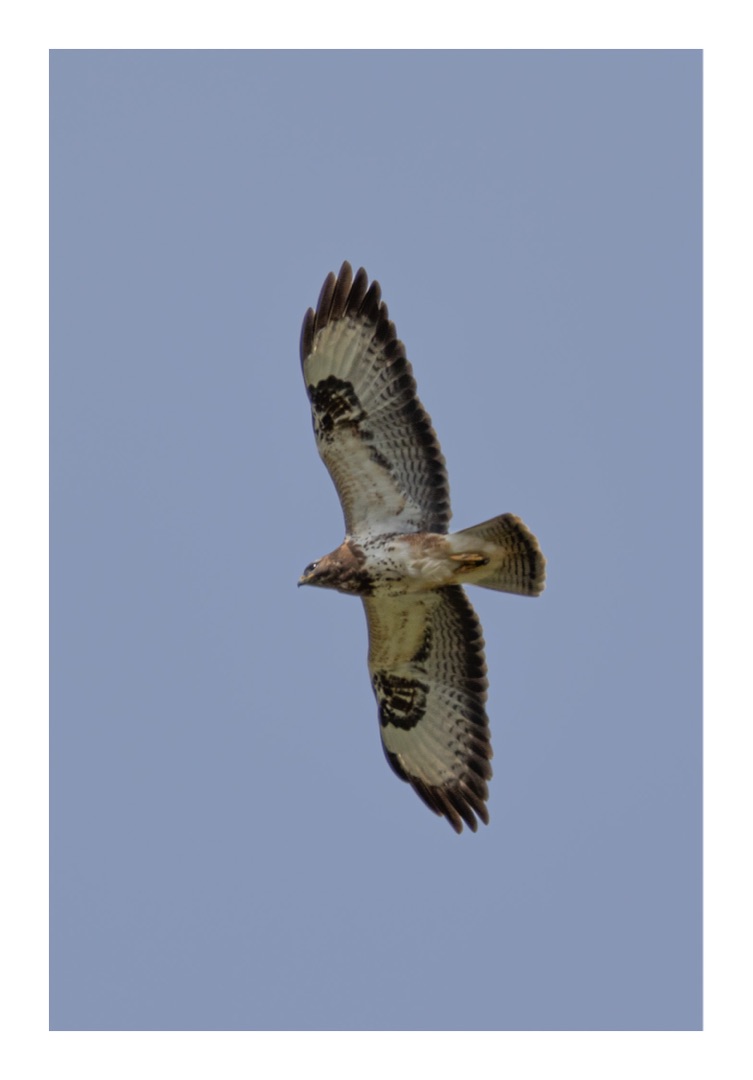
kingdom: Animalia
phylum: Chordata
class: Aves
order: Accipitriformes
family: Accipitridae
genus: Buteo
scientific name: Buteo buteo
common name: Musvåge
